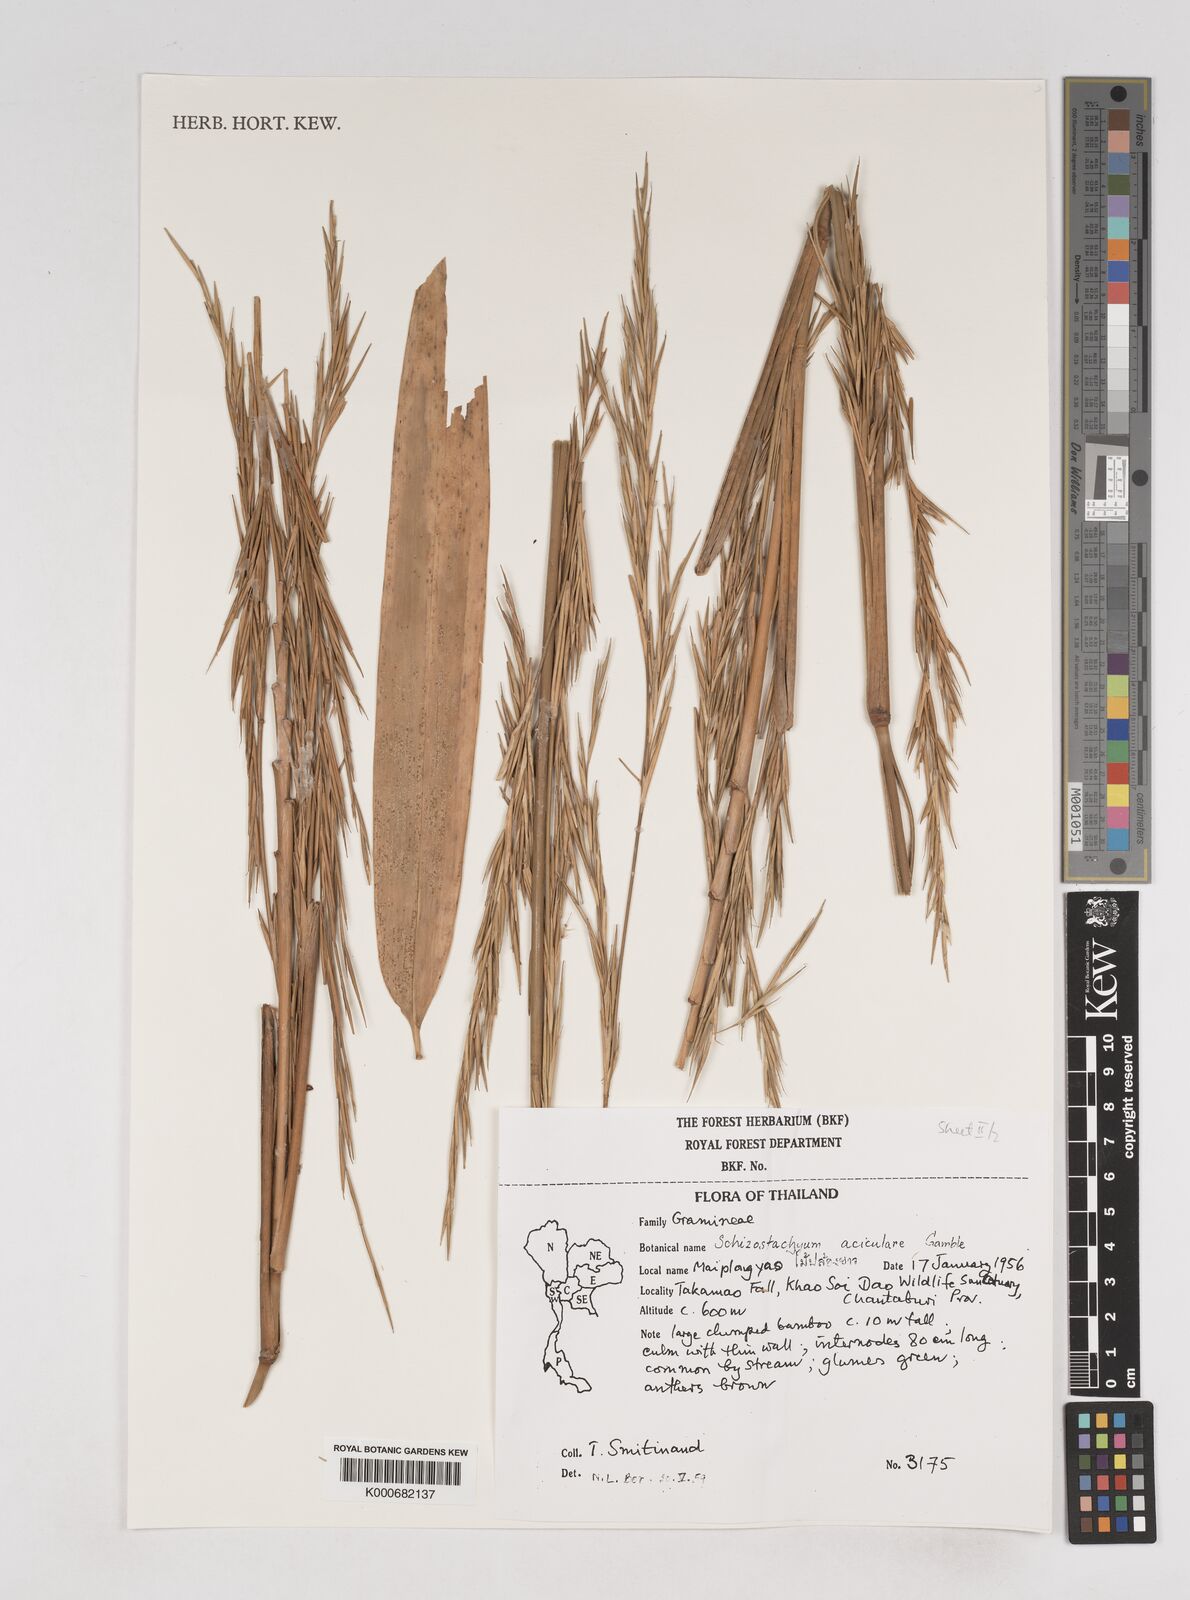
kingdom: Plantae
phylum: Tracheophyta
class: Liliopsida
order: Poales
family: Poaceae
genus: Schizostachyum
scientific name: Schizostachyum
